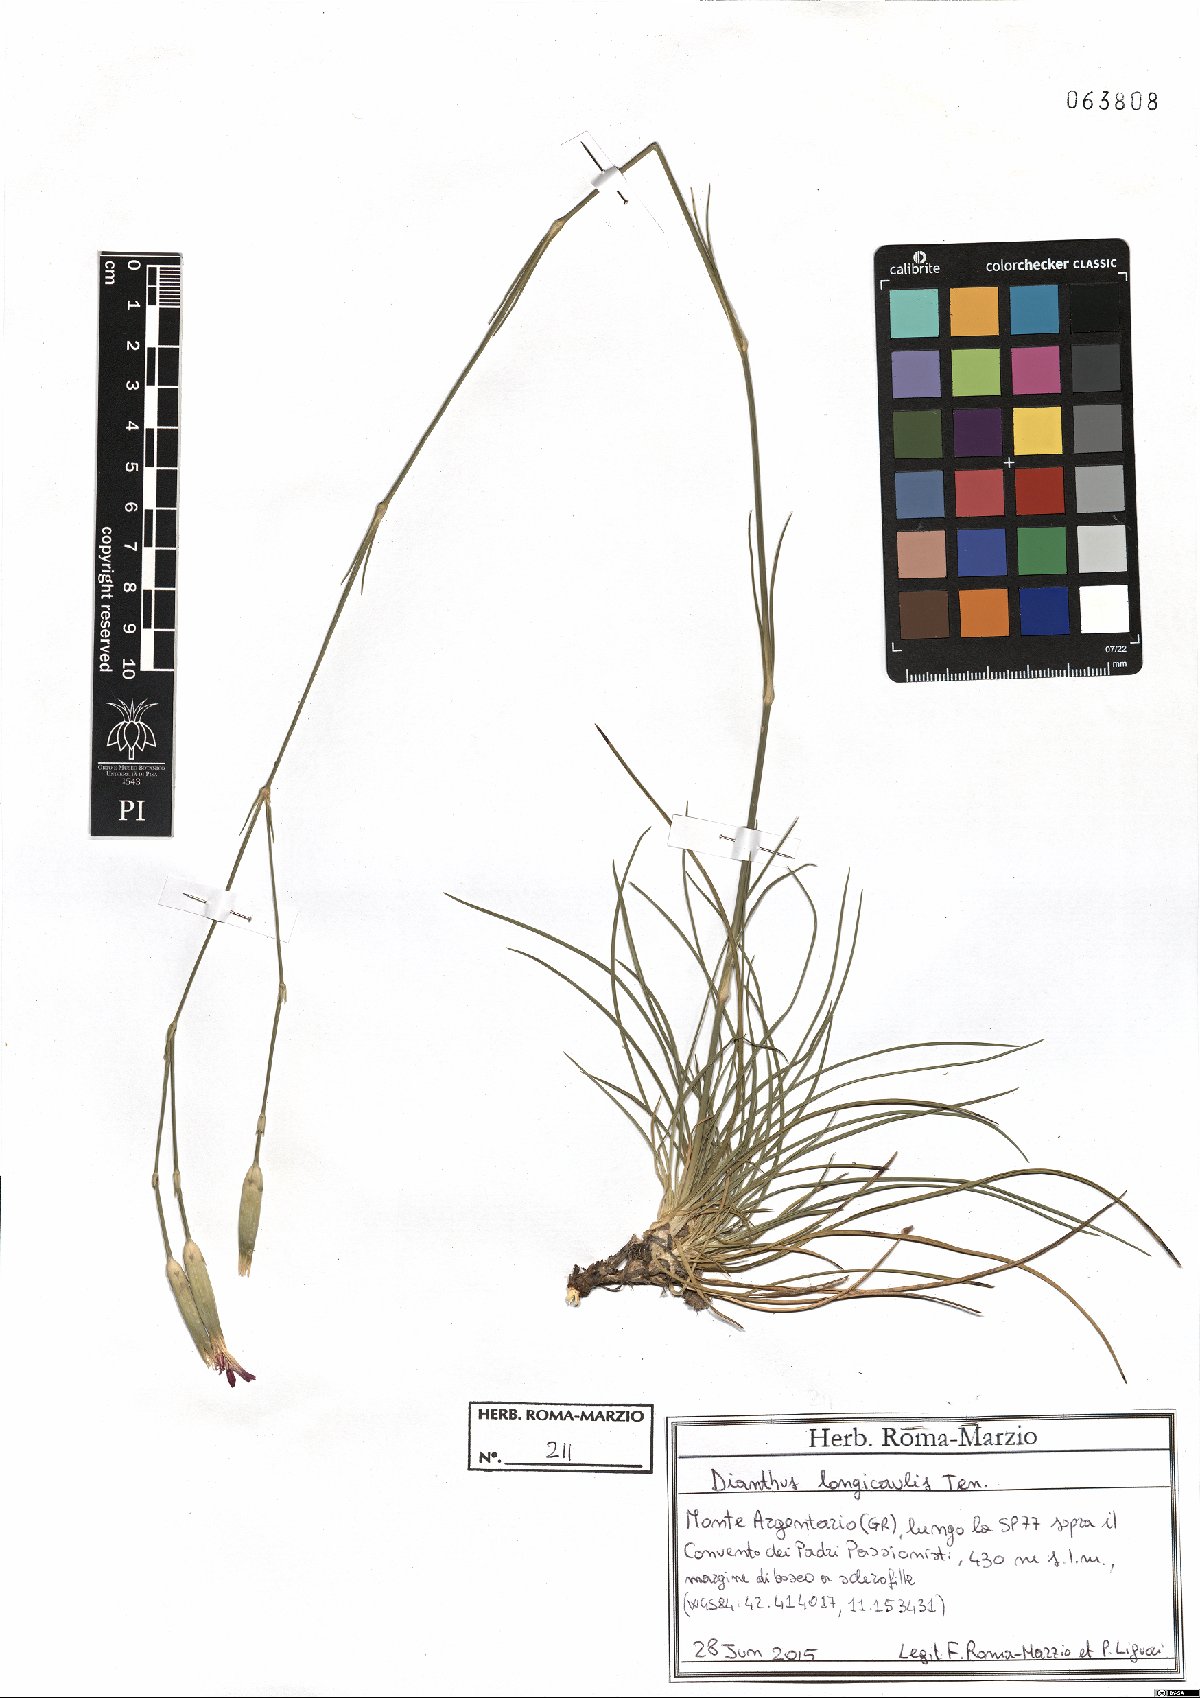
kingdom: Plantae
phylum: Tracheophyta
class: Magnoliopsida
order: Caryophyllales
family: Caryophyllaceae
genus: Dianthus
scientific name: Dianthus virgineus
